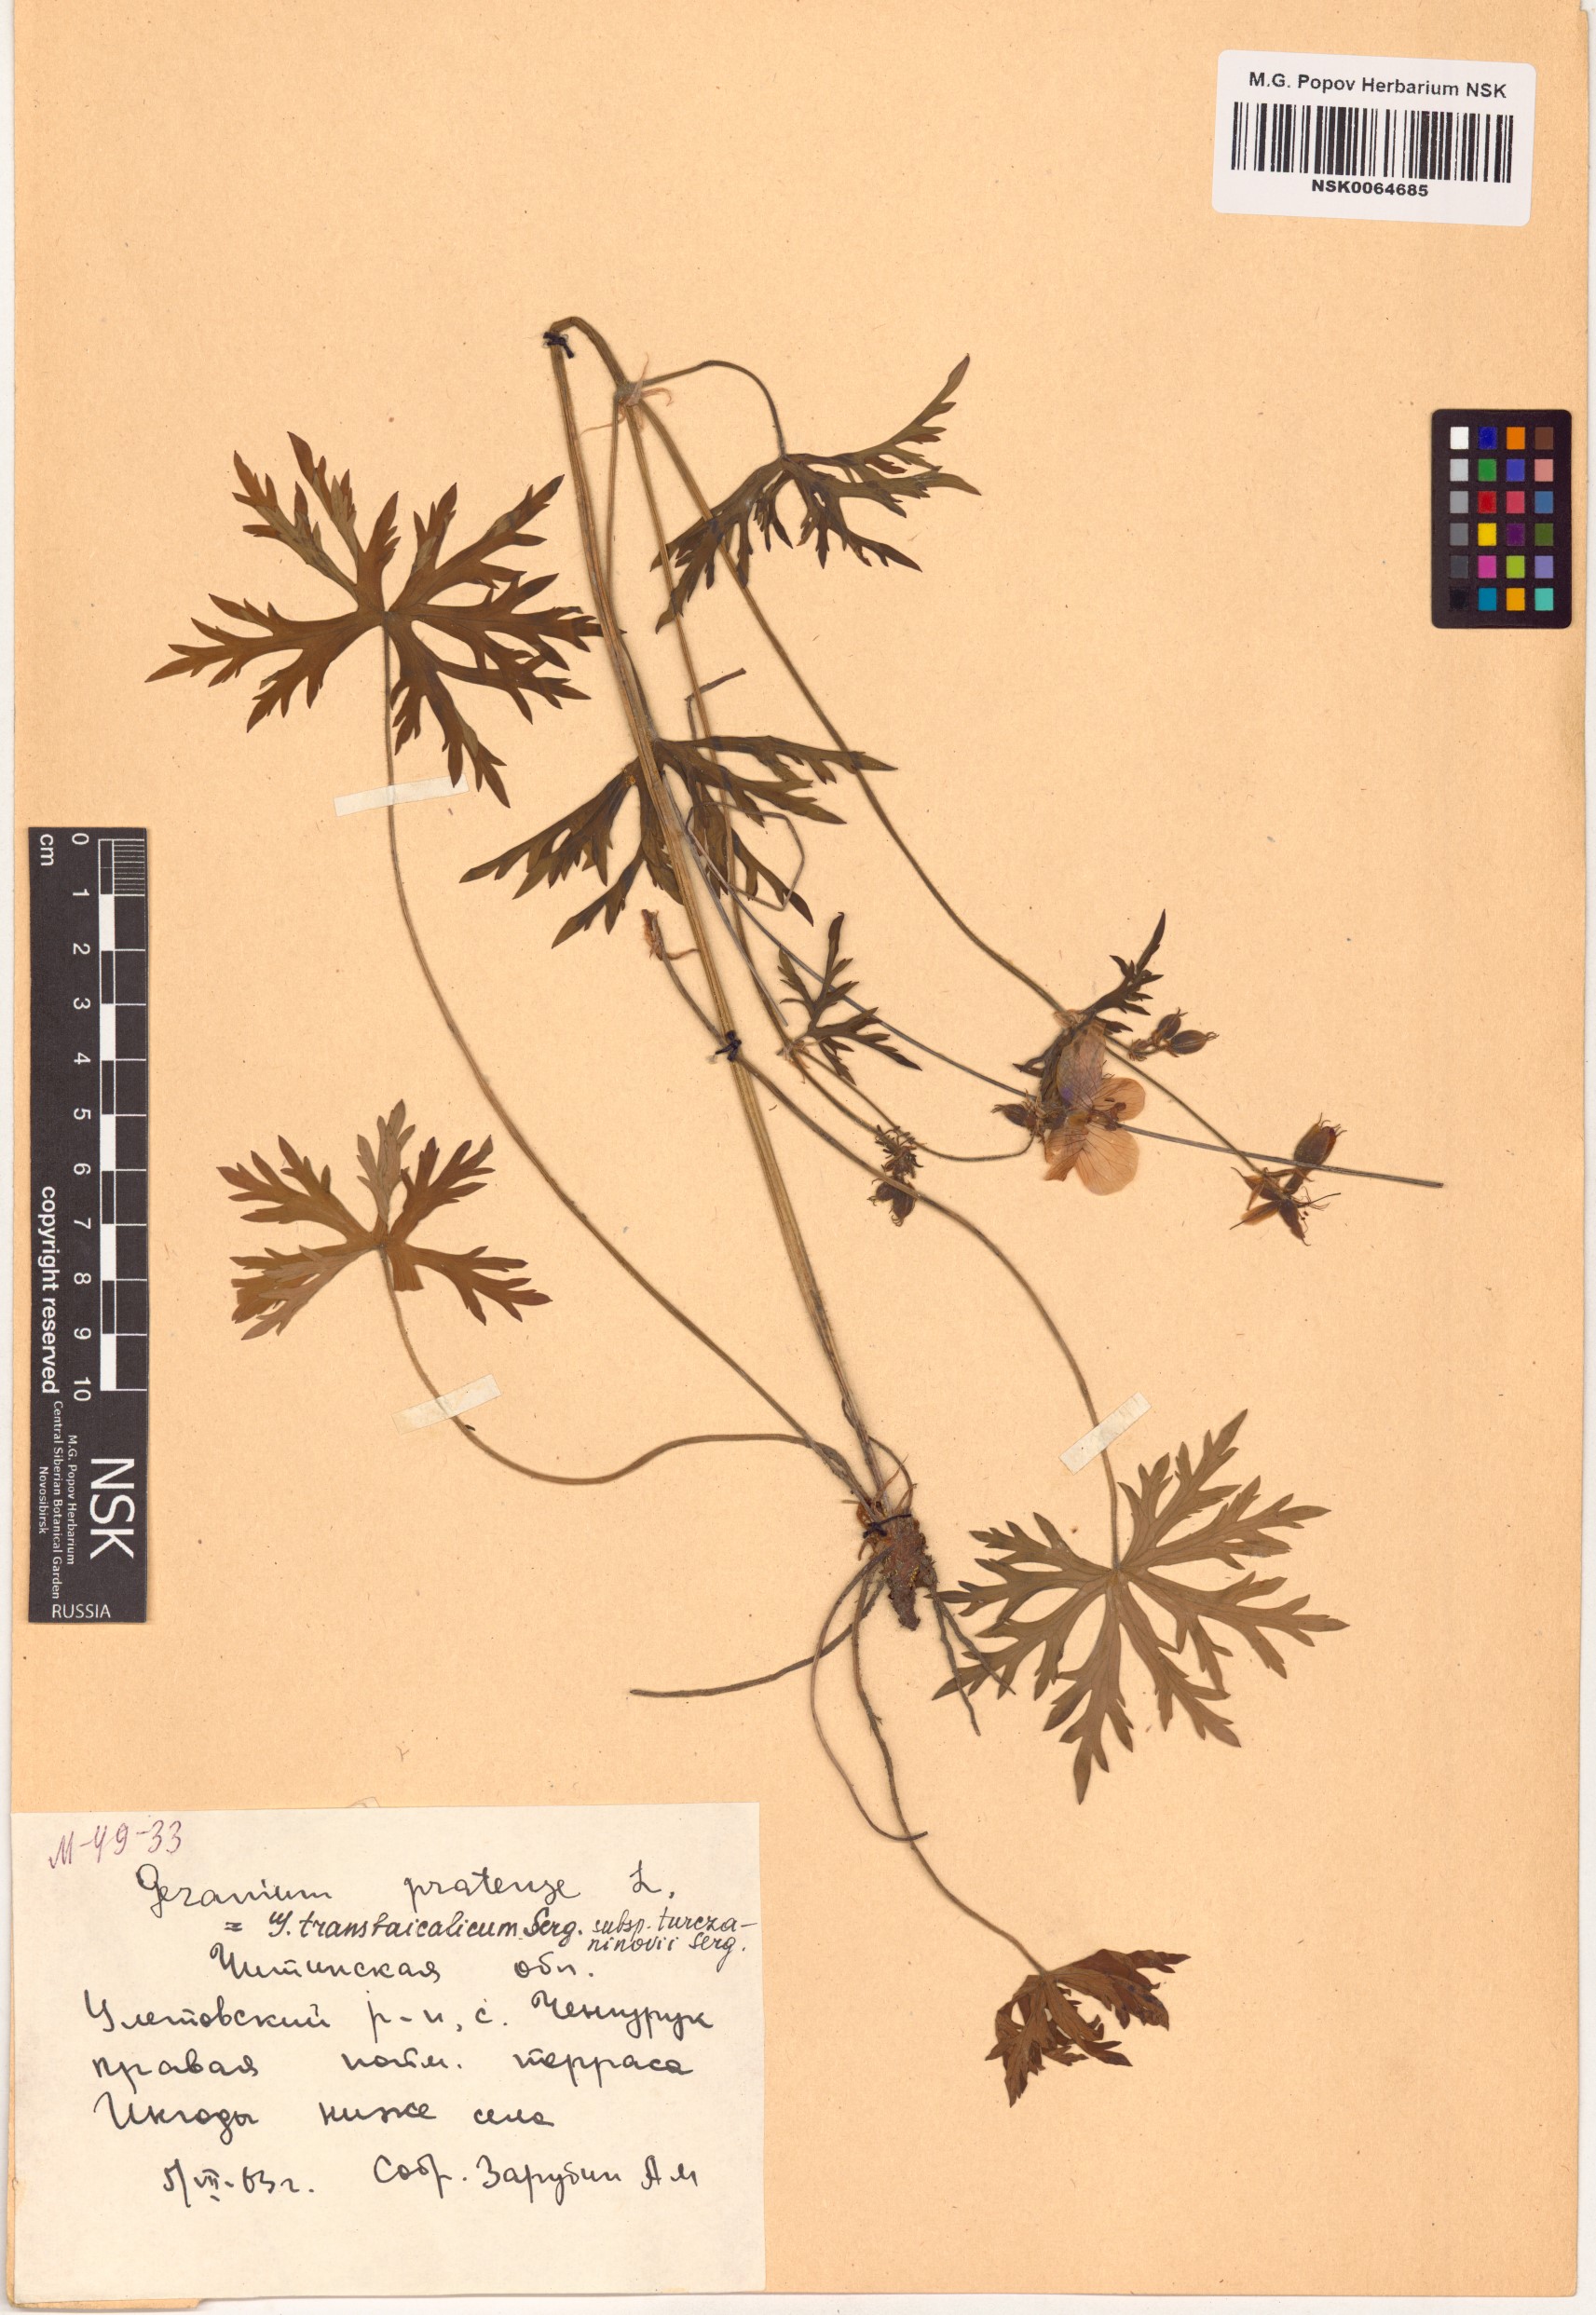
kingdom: Plantae
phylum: Tracheophyta
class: Magnoliopsida
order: Geraniales
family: Geraniaceae
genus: Geranium
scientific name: Geranium pratense
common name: Meadow crane's-bill
